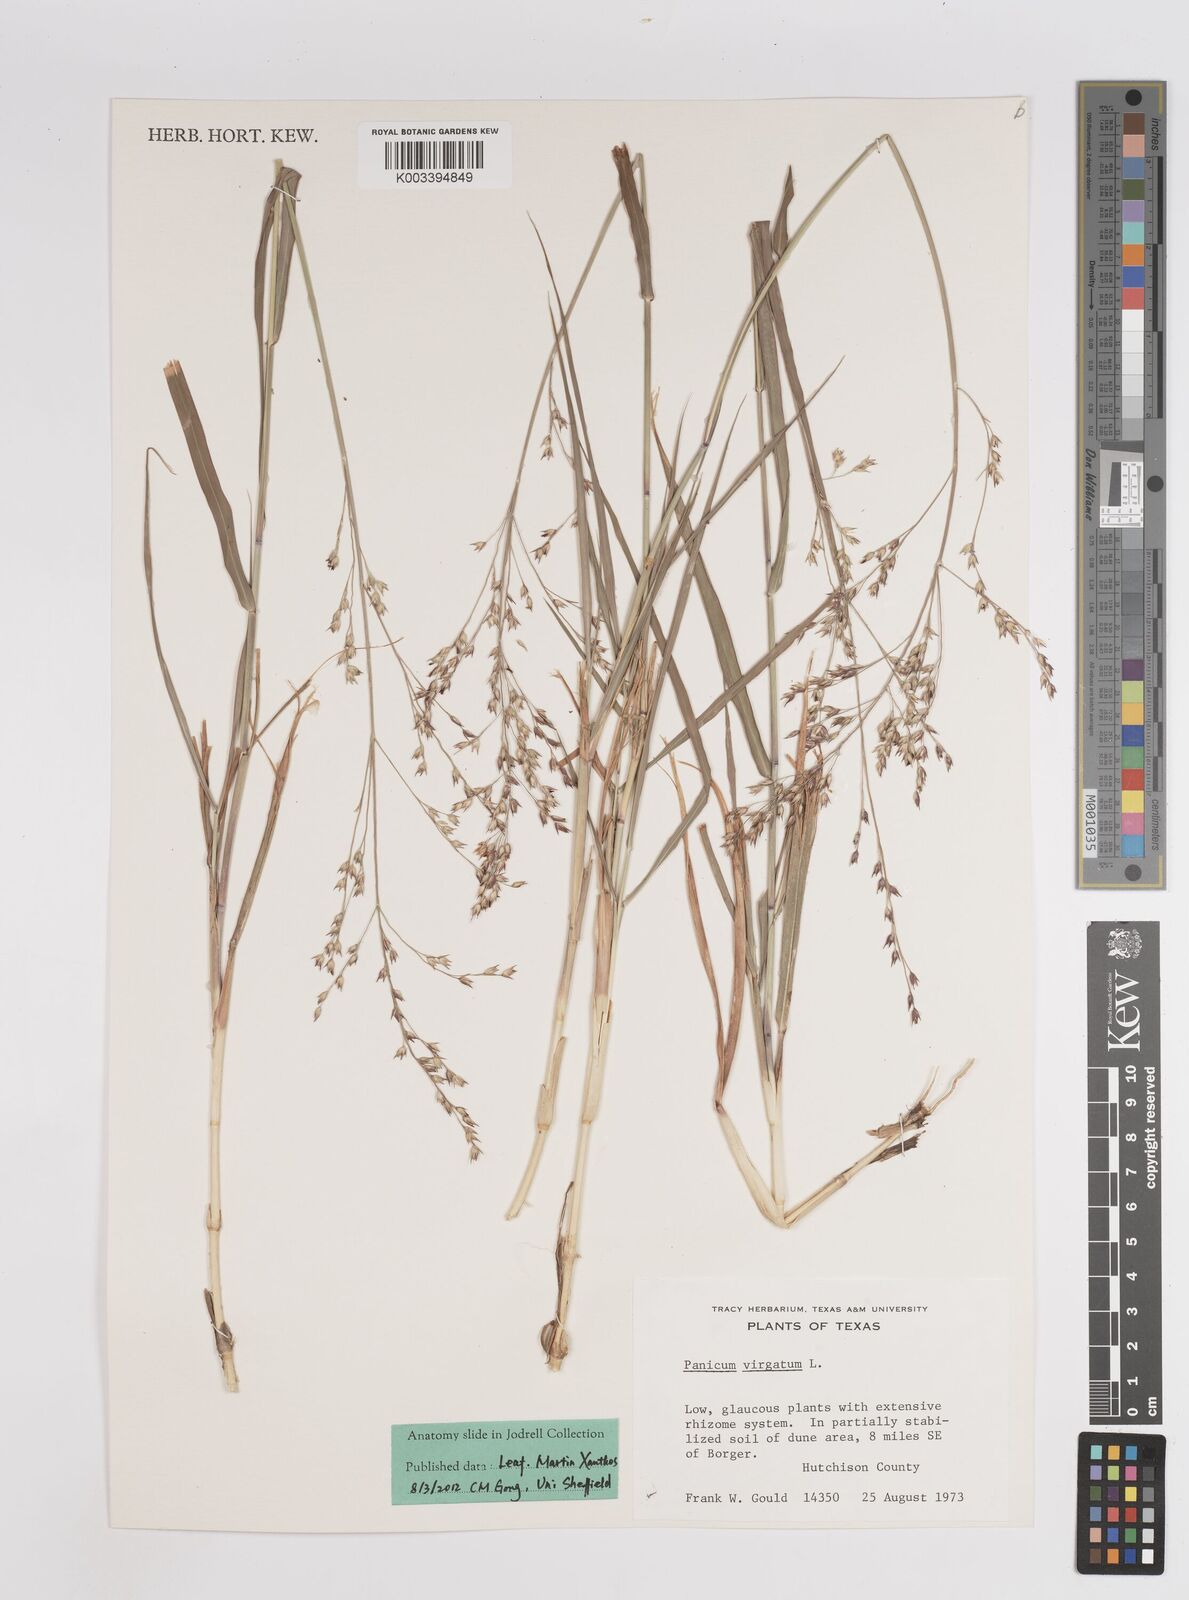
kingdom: Plantae
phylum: Tracheophyta
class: Liliopsida
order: Poales
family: Poaceae
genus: Panicum
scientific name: Panicum virgatum
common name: Switchgrass
